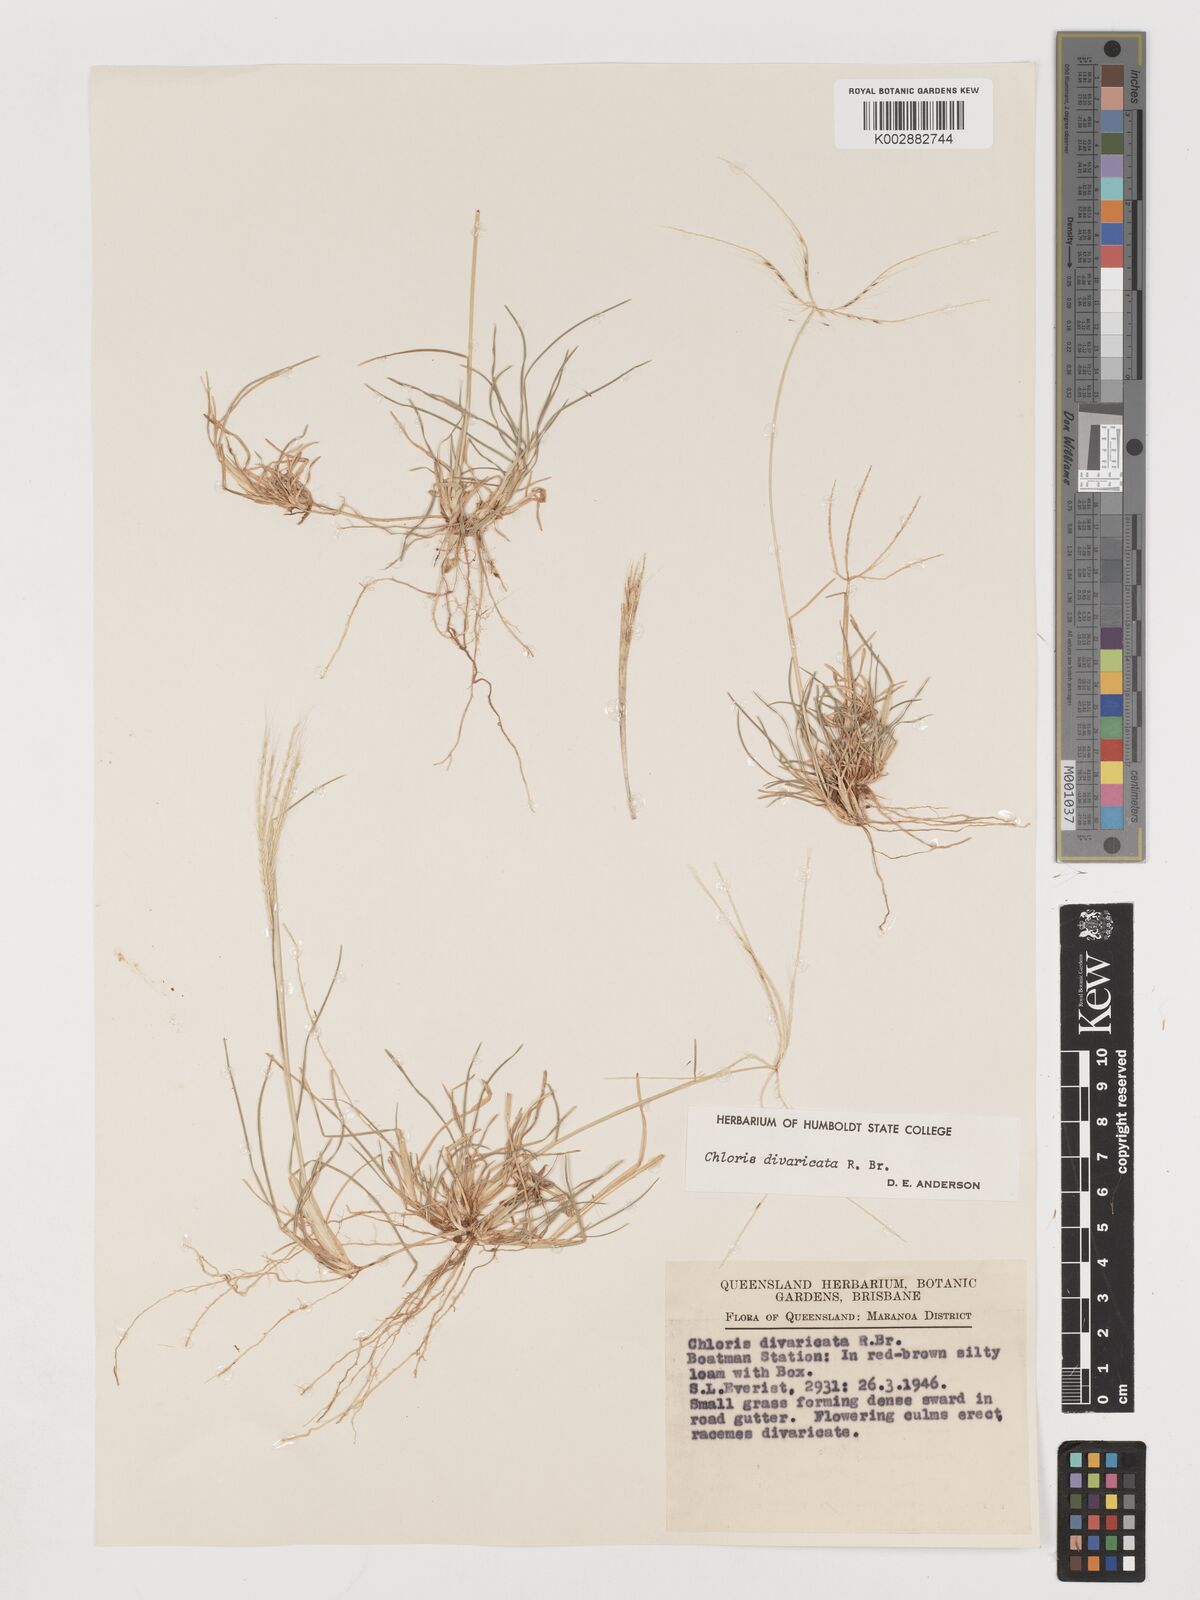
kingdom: Plantae
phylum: Tracheophyta
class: Liliopsida
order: Poales
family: Poaceae
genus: Chloris
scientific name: Chloris divaricata
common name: Spreading windmill grass
